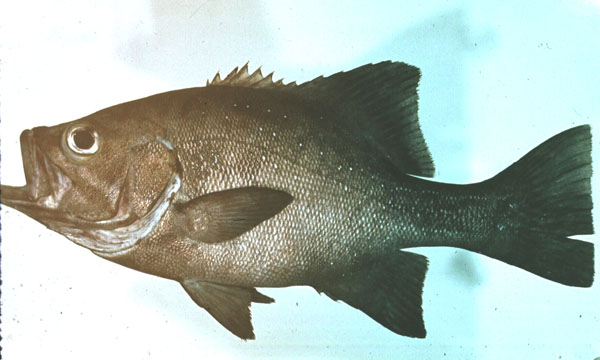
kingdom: Animalia
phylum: Chordata
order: Perciformes
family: Dinopercidae
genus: Dinoperca
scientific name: Dinoperca petersi
